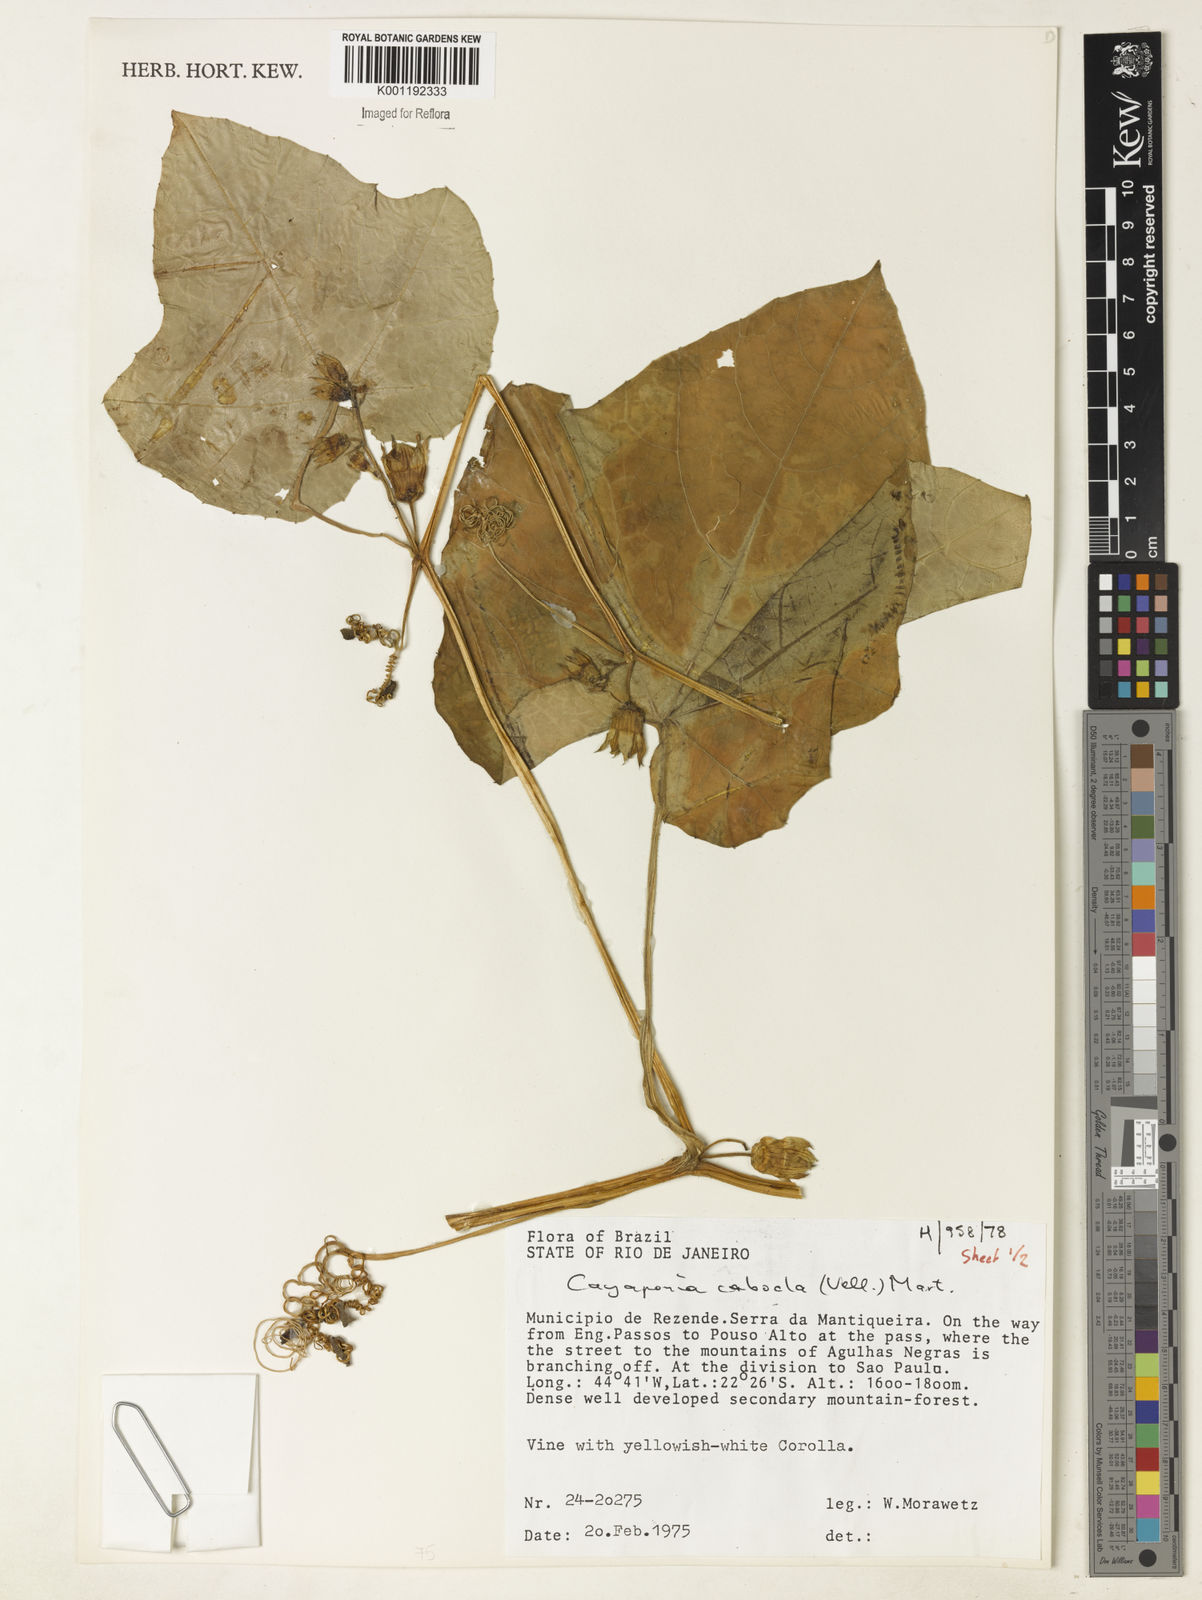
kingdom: Plantae
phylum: Tracheophyta
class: Magnoliopsida
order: Cucurbitales
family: Cucurbitaceae
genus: Cayaponia
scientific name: Cayaponia cabocla
